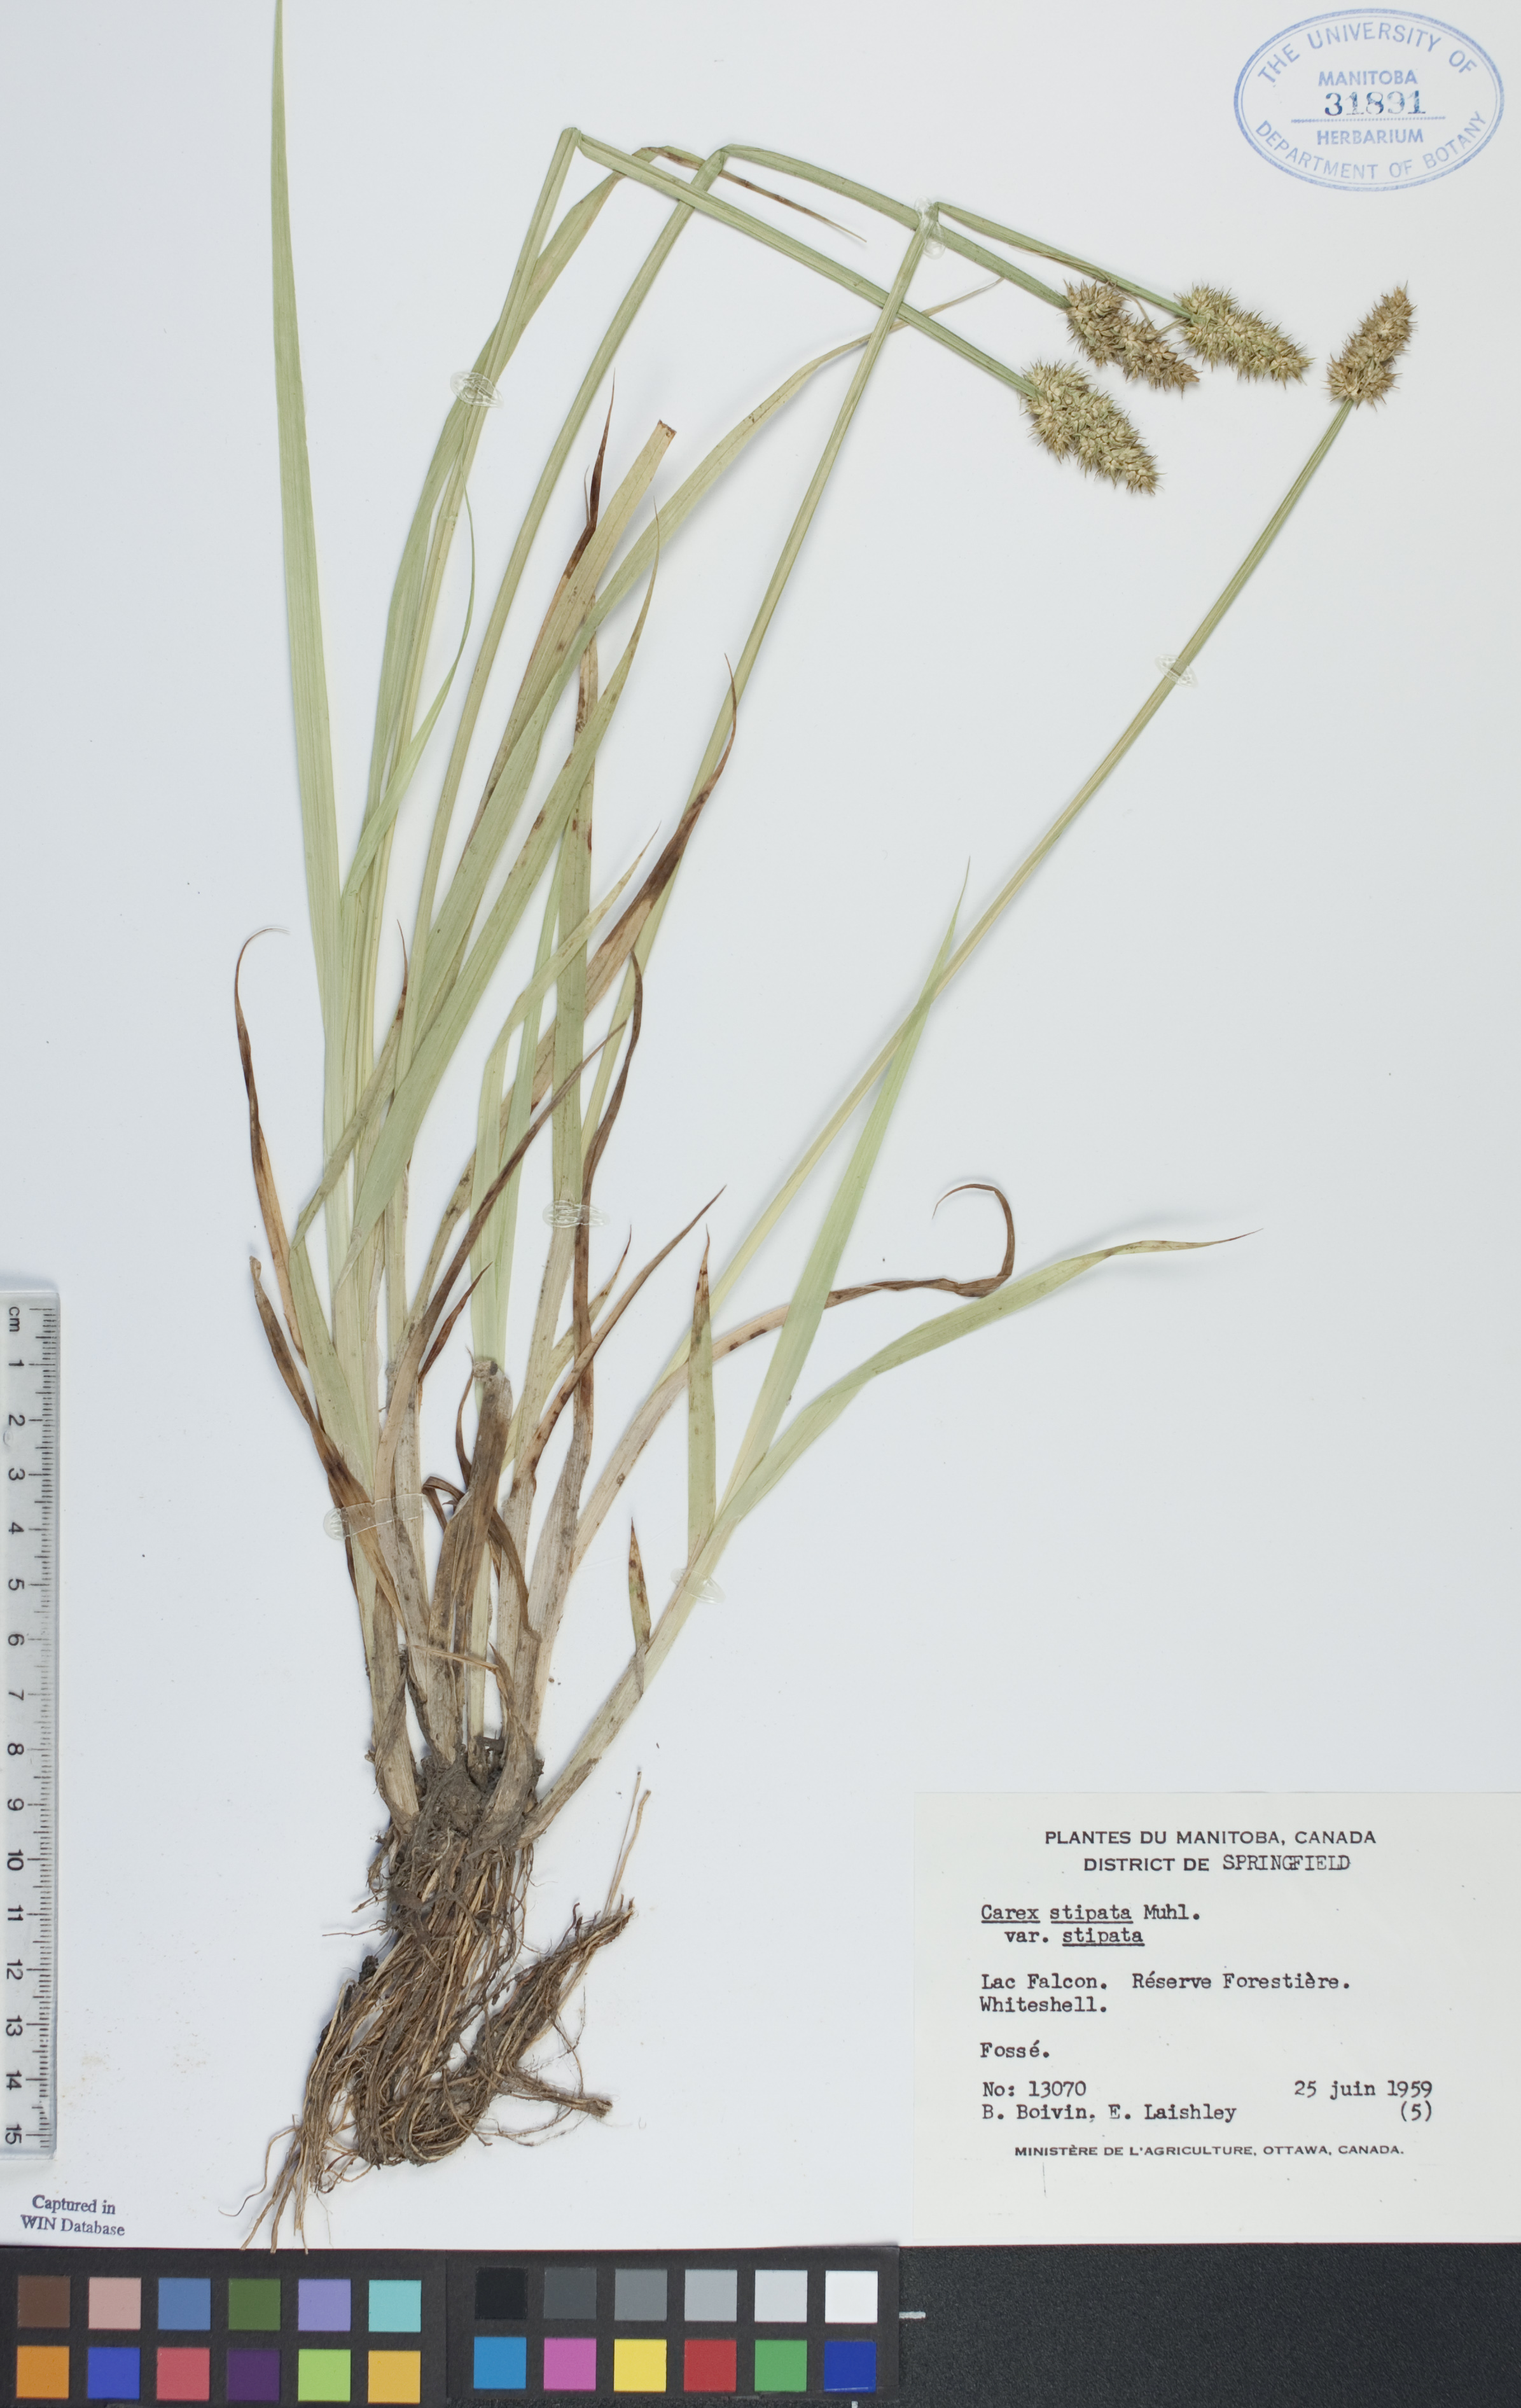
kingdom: Plantae
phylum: Tracheophyta
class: Liliopsida
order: Poales
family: Cyperaceae
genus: Carex
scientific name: Carex stipata
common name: Awl-fruited sedge
